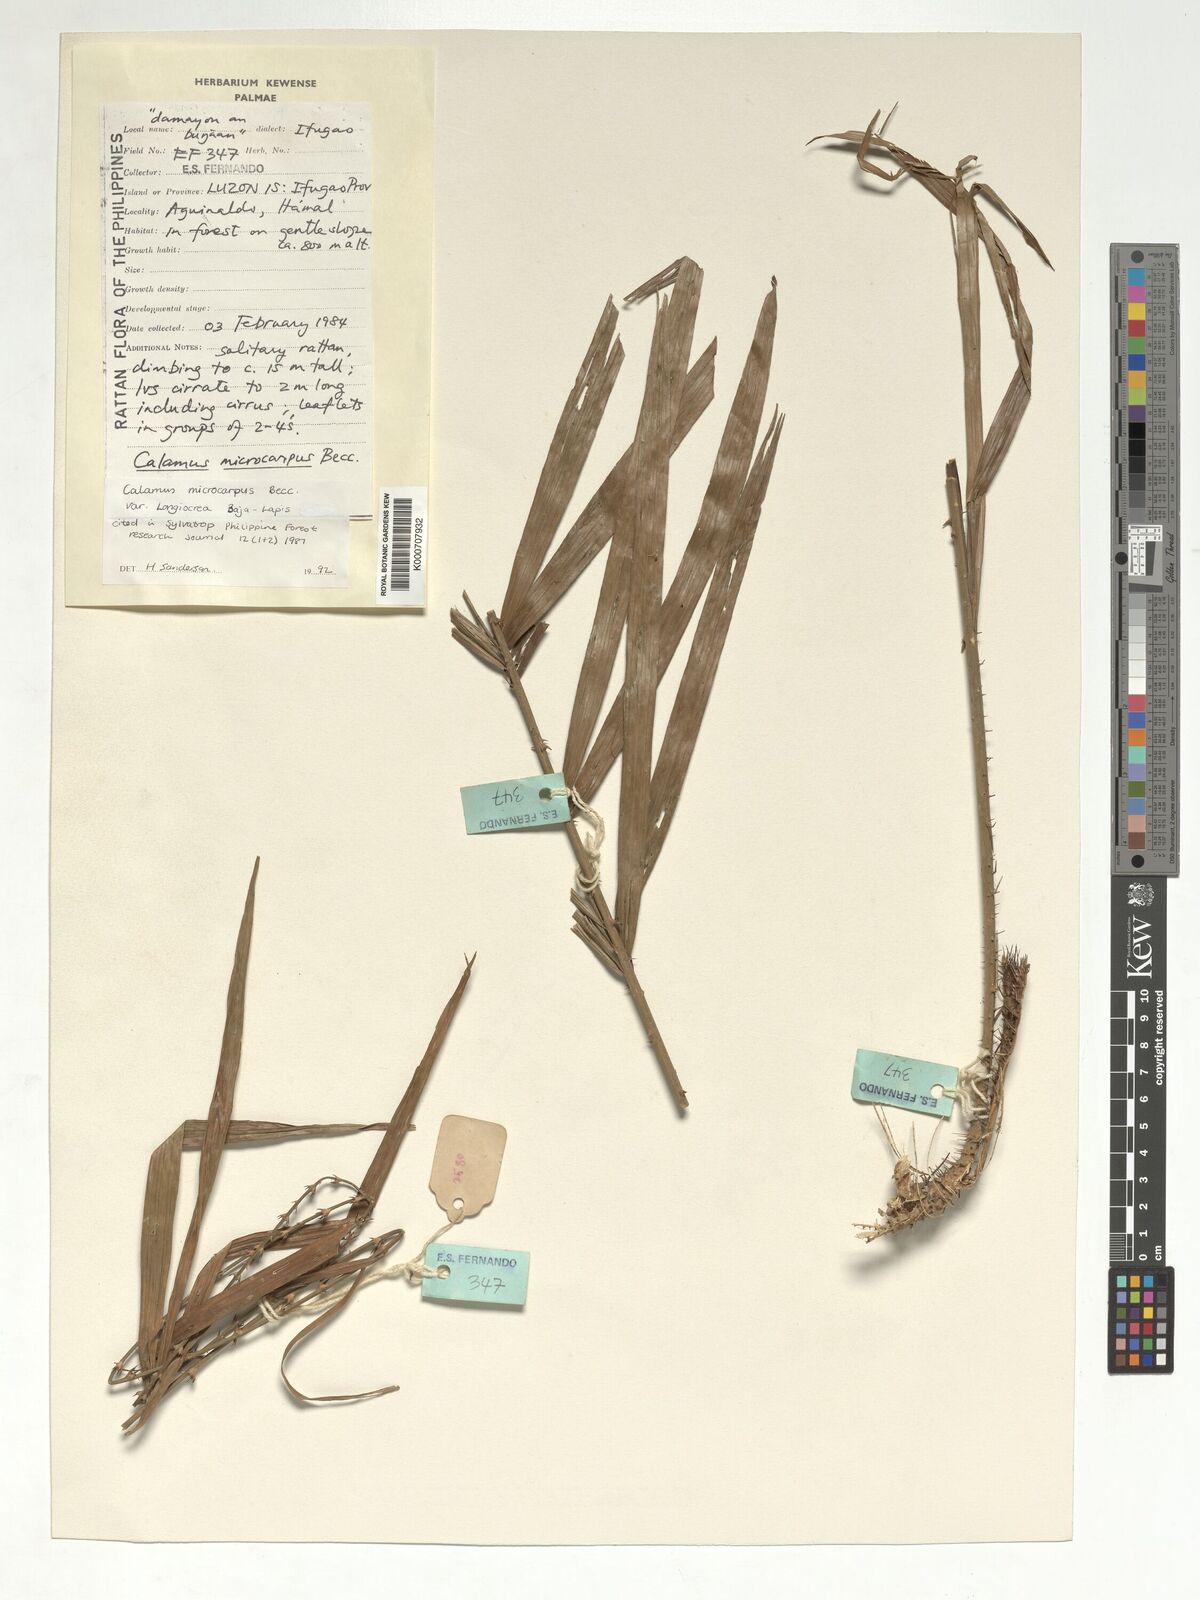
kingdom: Plantae
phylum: Tracheophyta
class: Liliopsida
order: Arecales
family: Arecaceae
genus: Calamus
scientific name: Calamus siphonospathus
